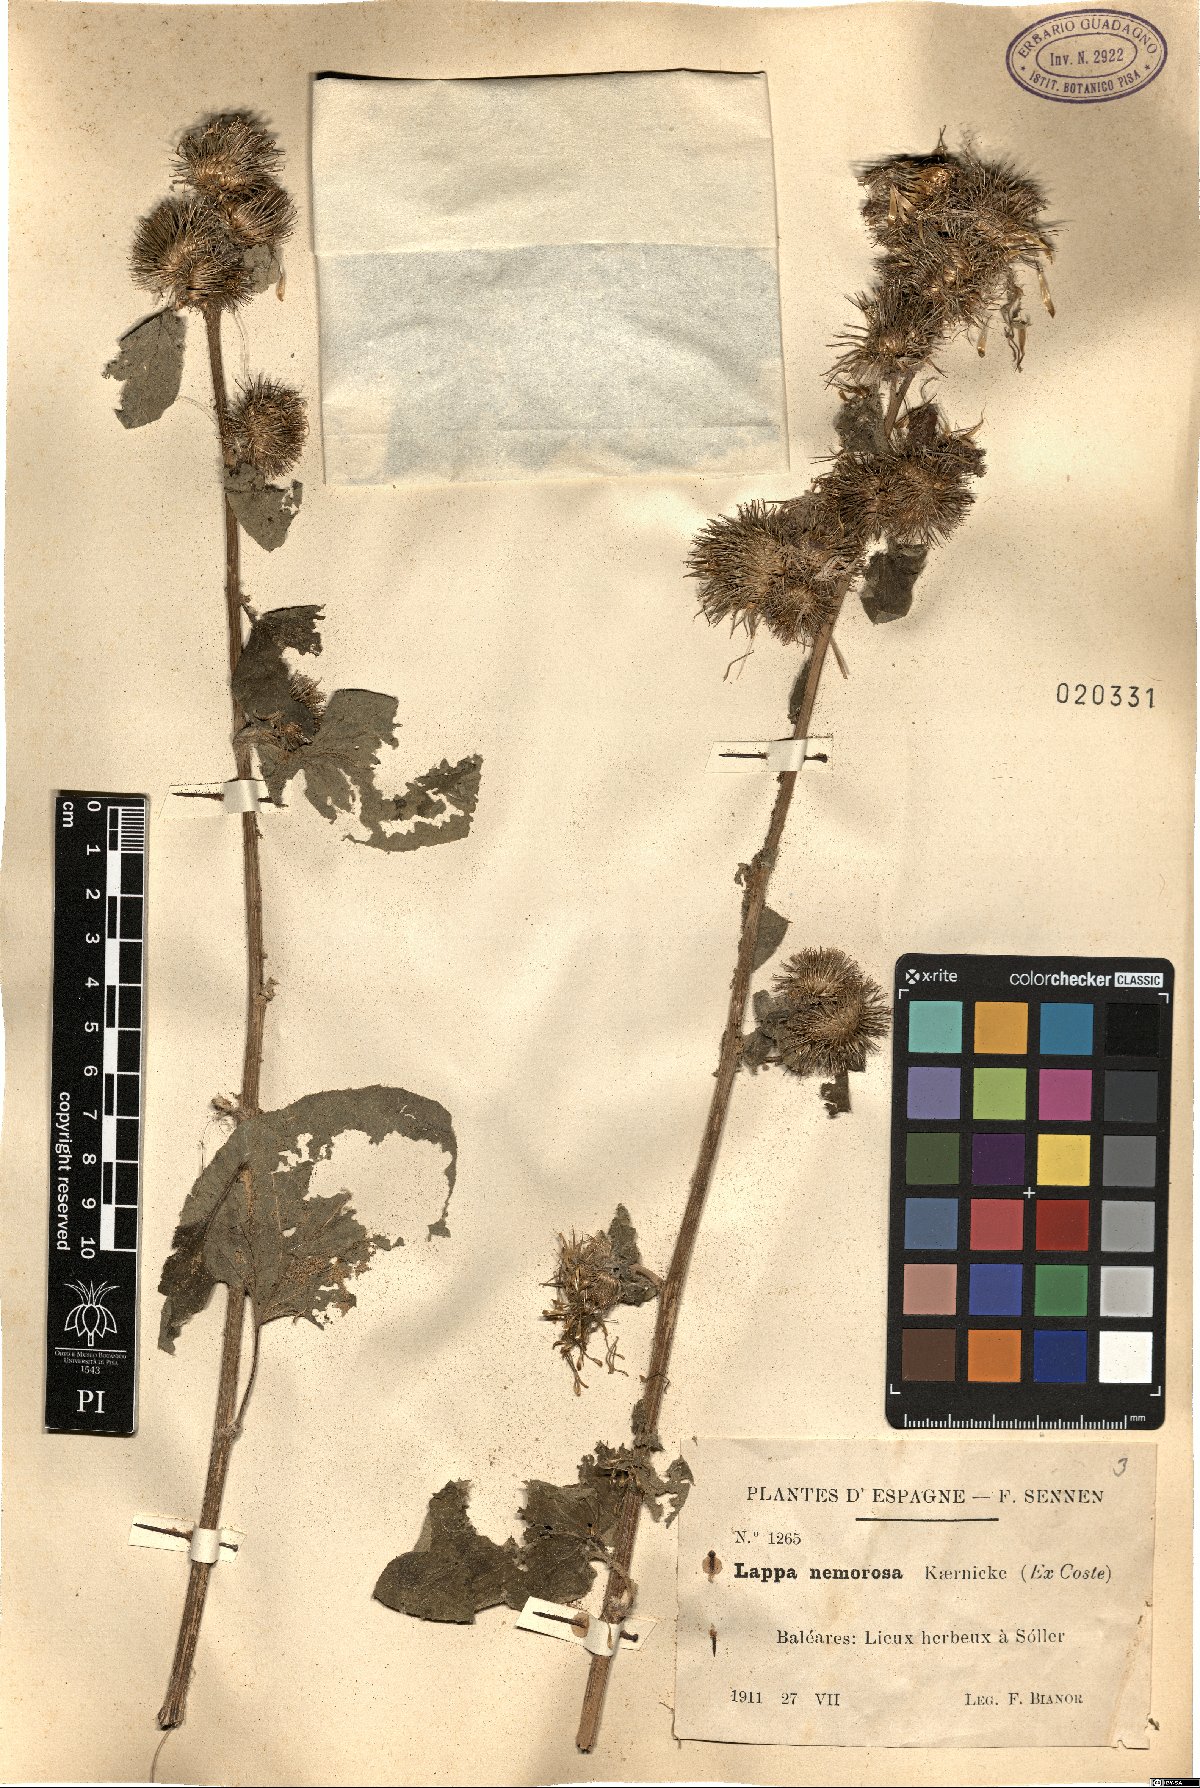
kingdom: Plantae
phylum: Tracheophyta
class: Magnoliopsida
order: Asterales
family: Asteraceae
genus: Arctium
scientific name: Arctium
